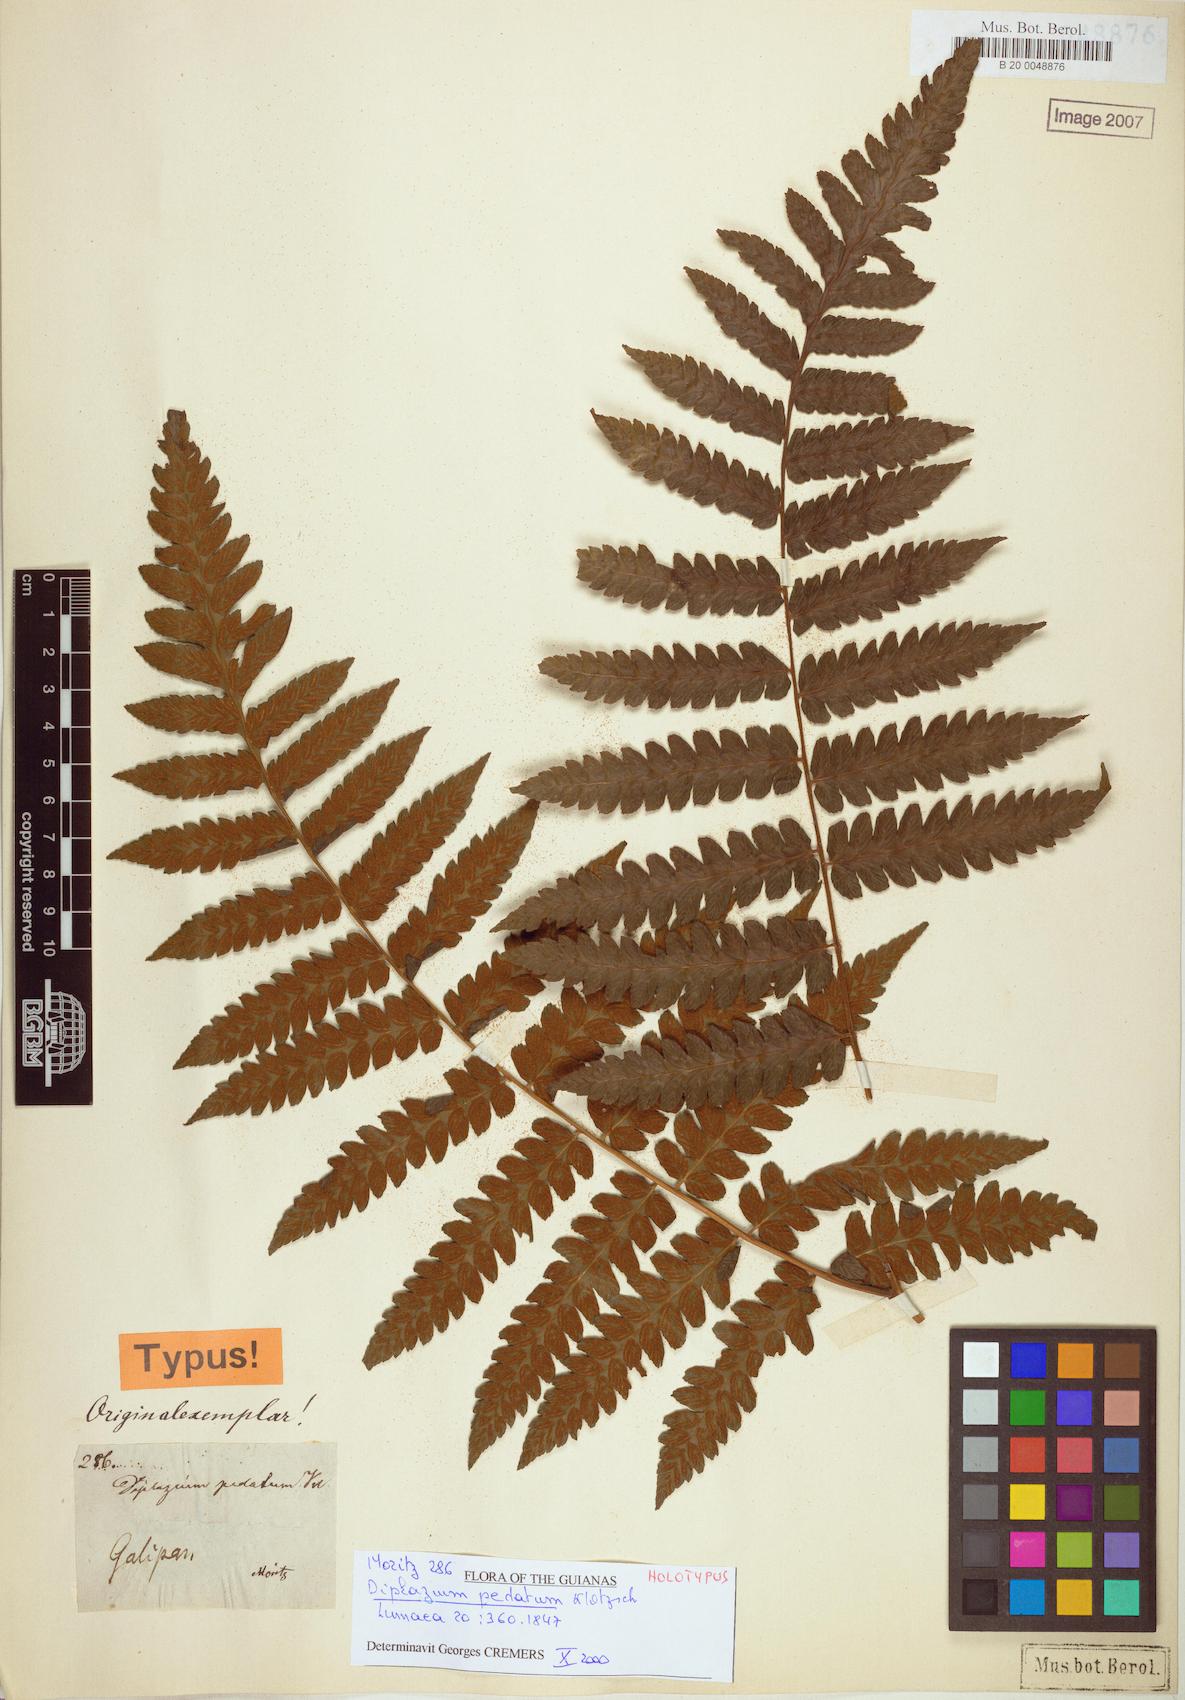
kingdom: Plantae
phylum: Tracheophyta
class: Polypodiopsida
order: Polypodiales
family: Athyriaceae
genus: Diplazium
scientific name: Diplazium pedatum
